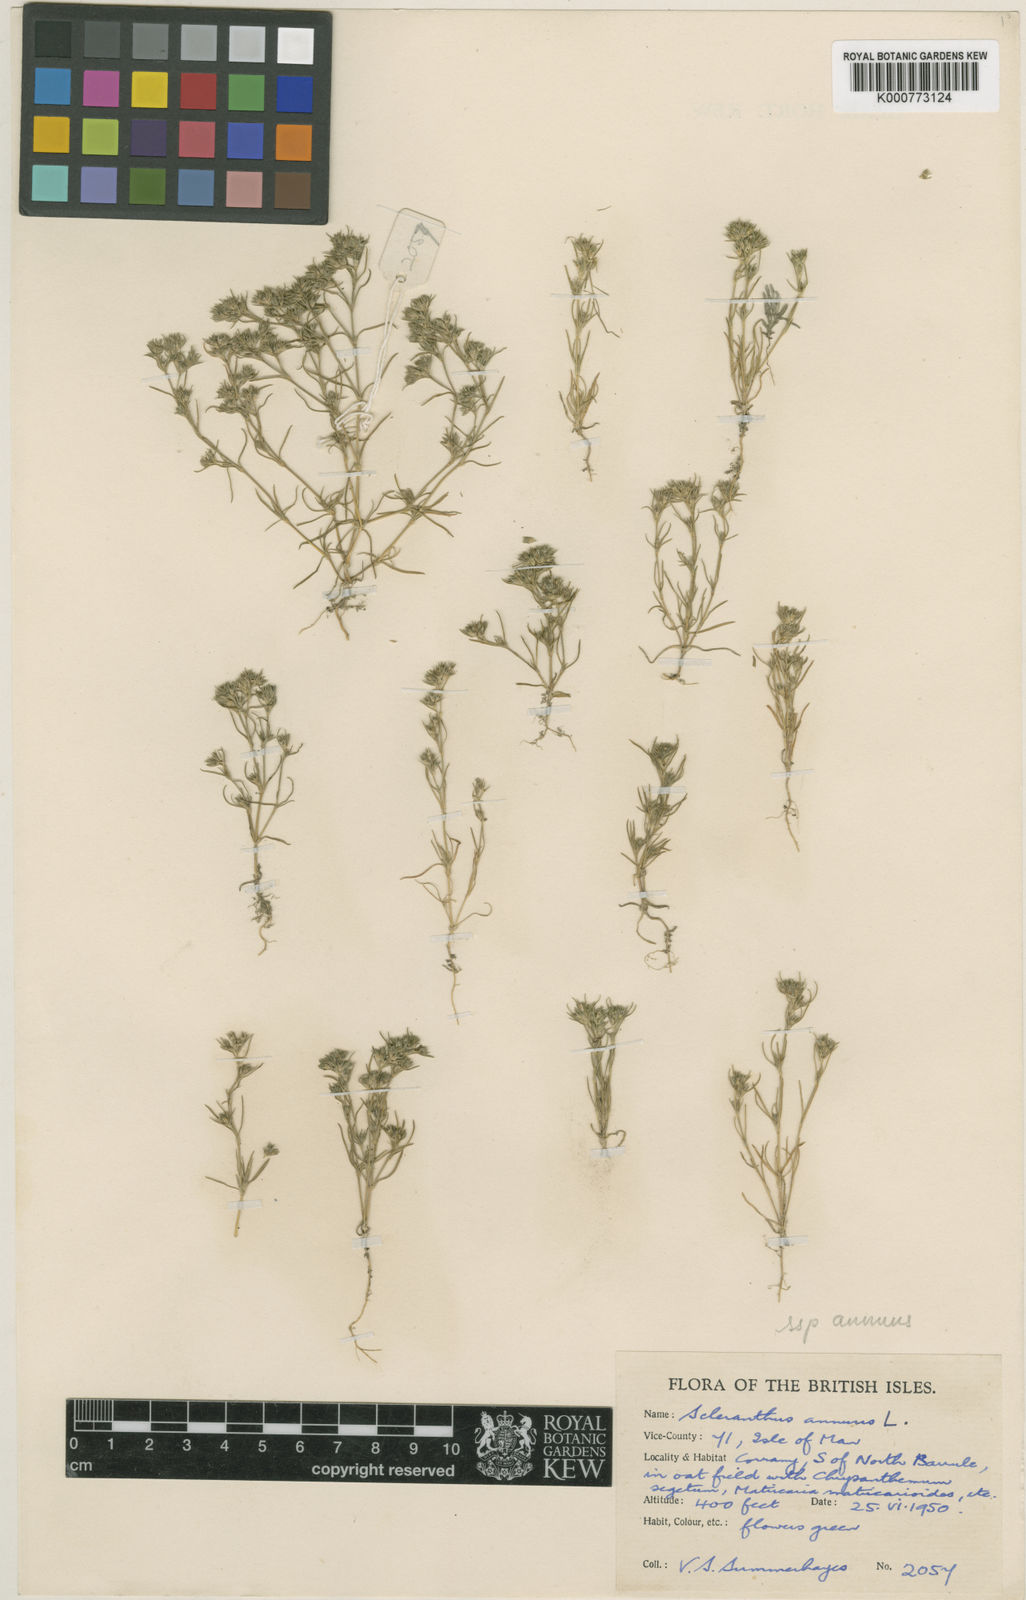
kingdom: Plantae
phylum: Tracheophyta
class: Magnoliopsida
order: Caryophyllales
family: Caryophyllaceae
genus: Scleranthus
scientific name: Scleranthus annuus
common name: Annual knawel
